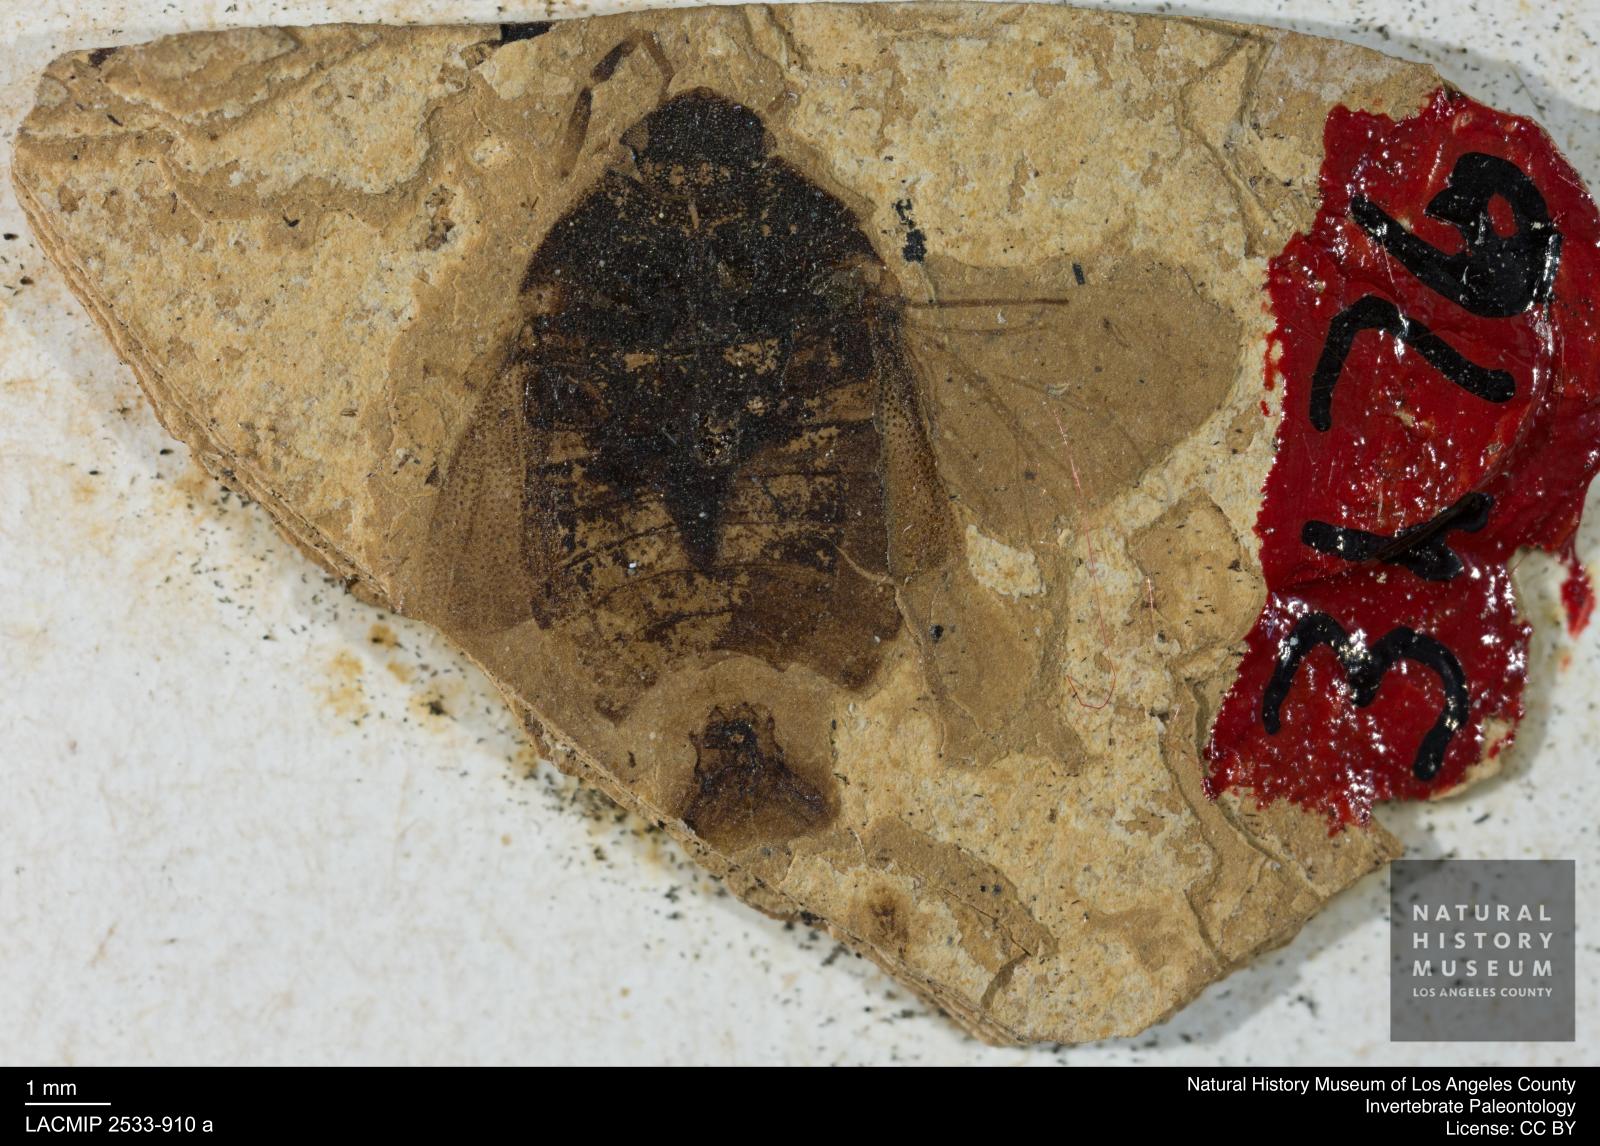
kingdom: Animalia
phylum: Arthropoda
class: Insecta
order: Hemiptera
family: Cydnidae
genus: Sehirus
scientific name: Sehirus spinitibialis
